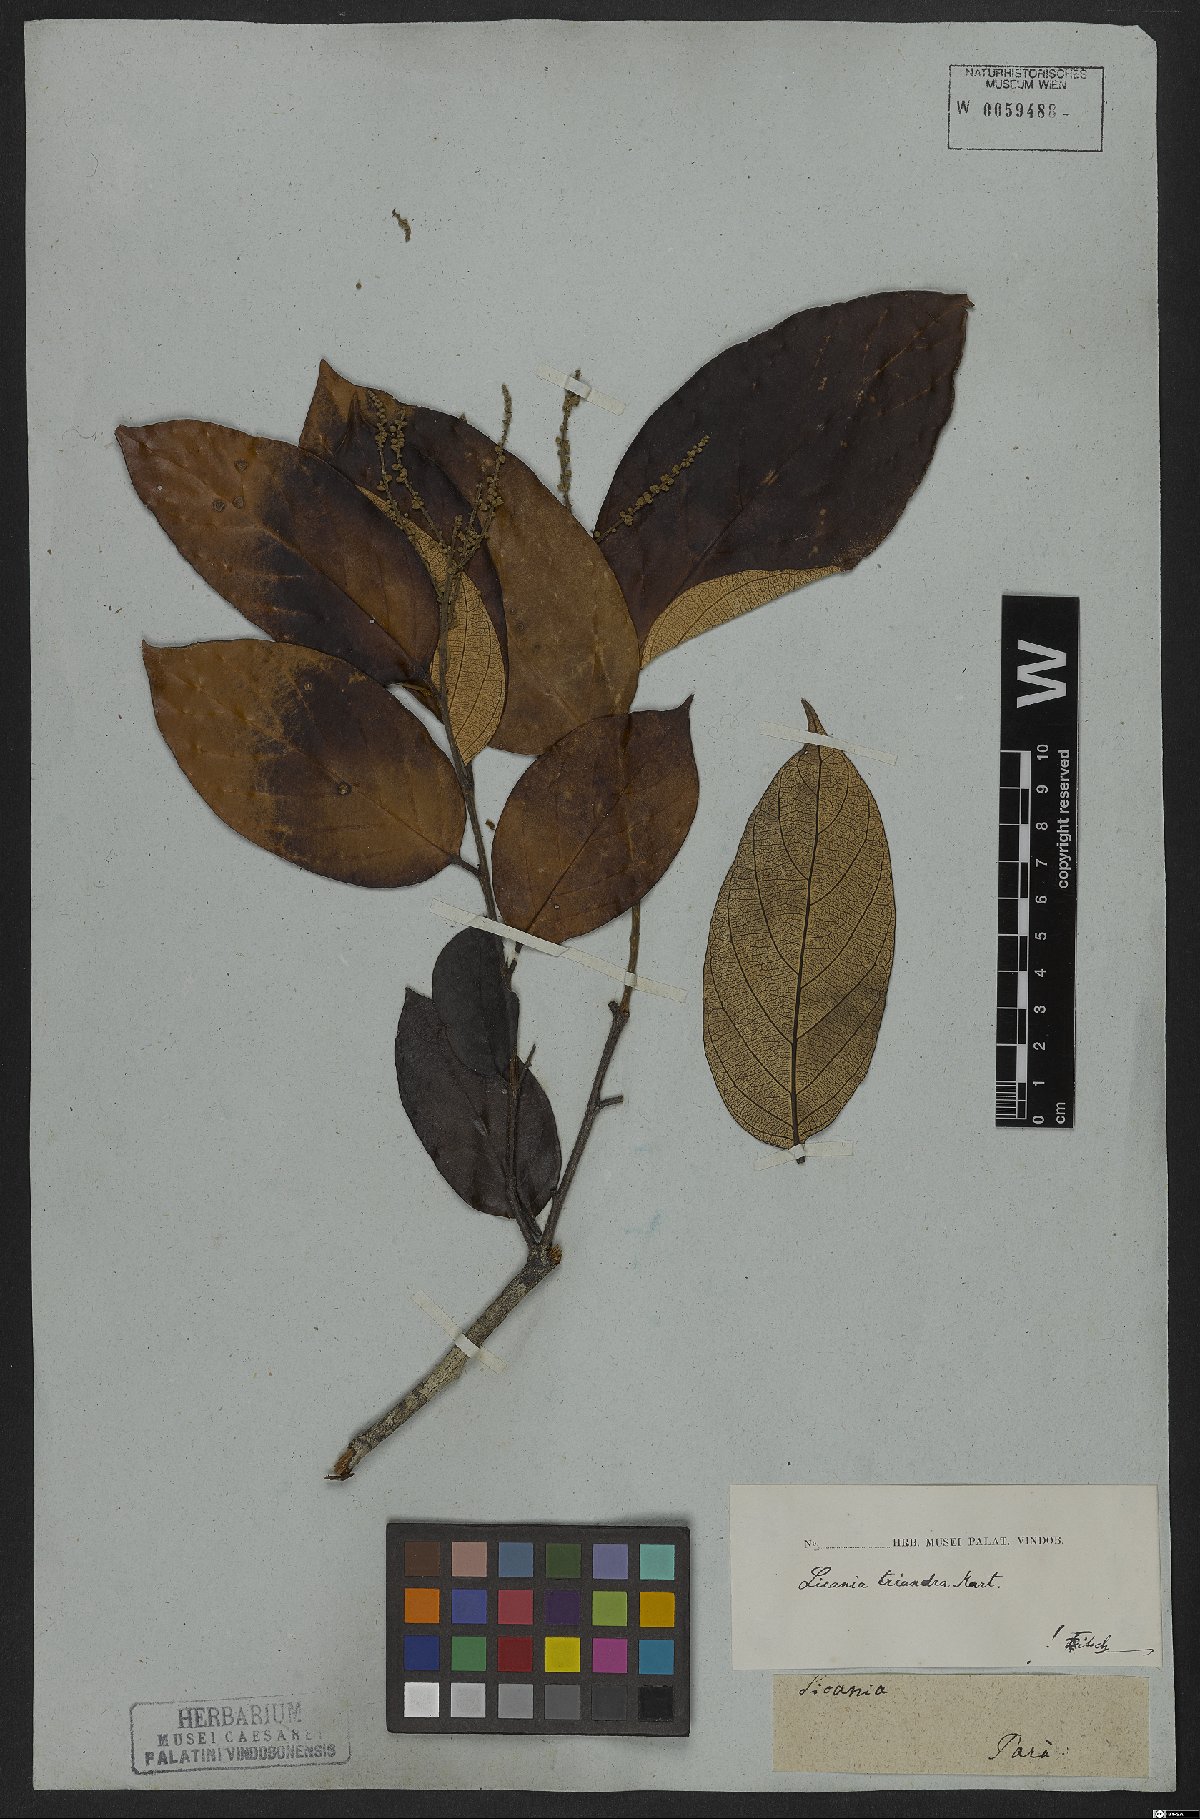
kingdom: Plantae
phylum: Tracheophyta
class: Magnoliopsida
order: Malpighiales
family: Chrysobalanaceae
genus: Licania
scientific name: Licania triandra
